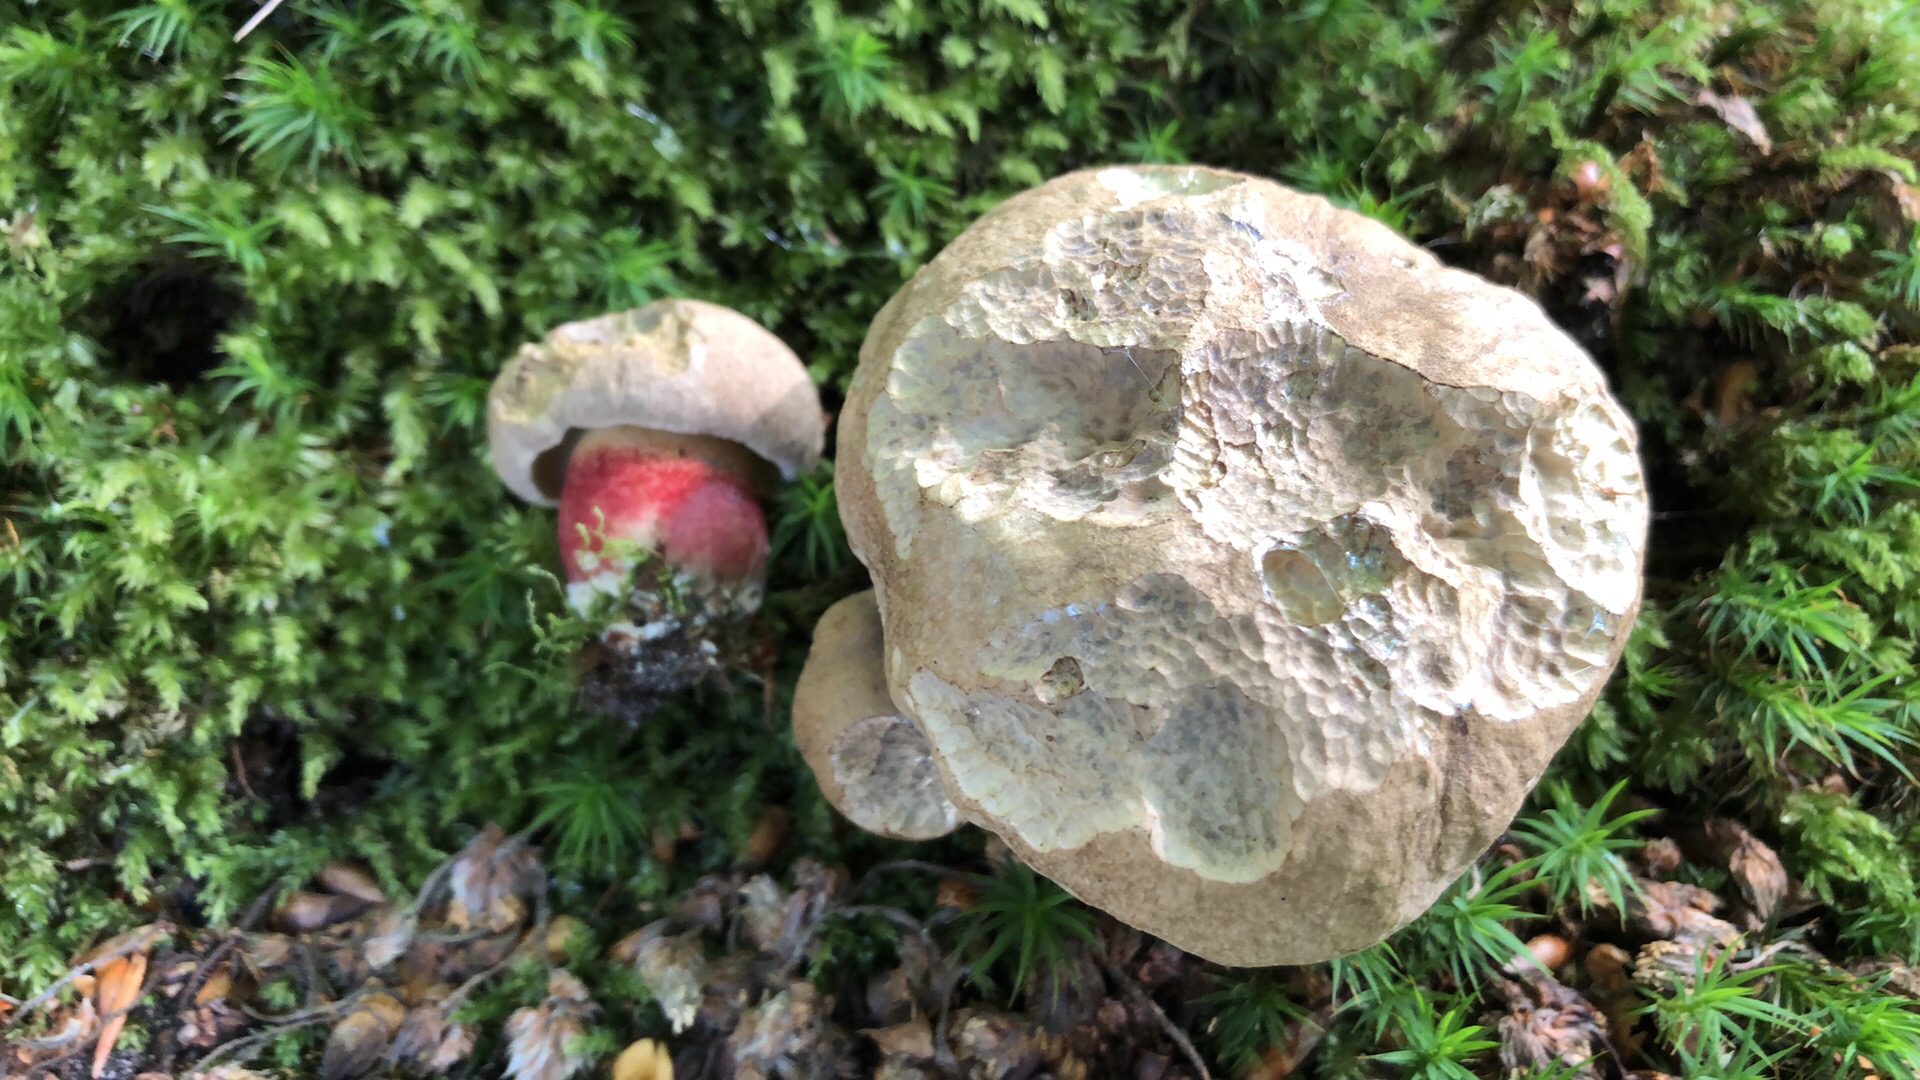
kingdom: Fungi
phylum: Basidiomycota
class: Agaricomycetes
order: Boletales
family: Boletaceae
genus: Caloboletus
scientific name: Caloboletus calopus
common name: skønfodet rørhat
